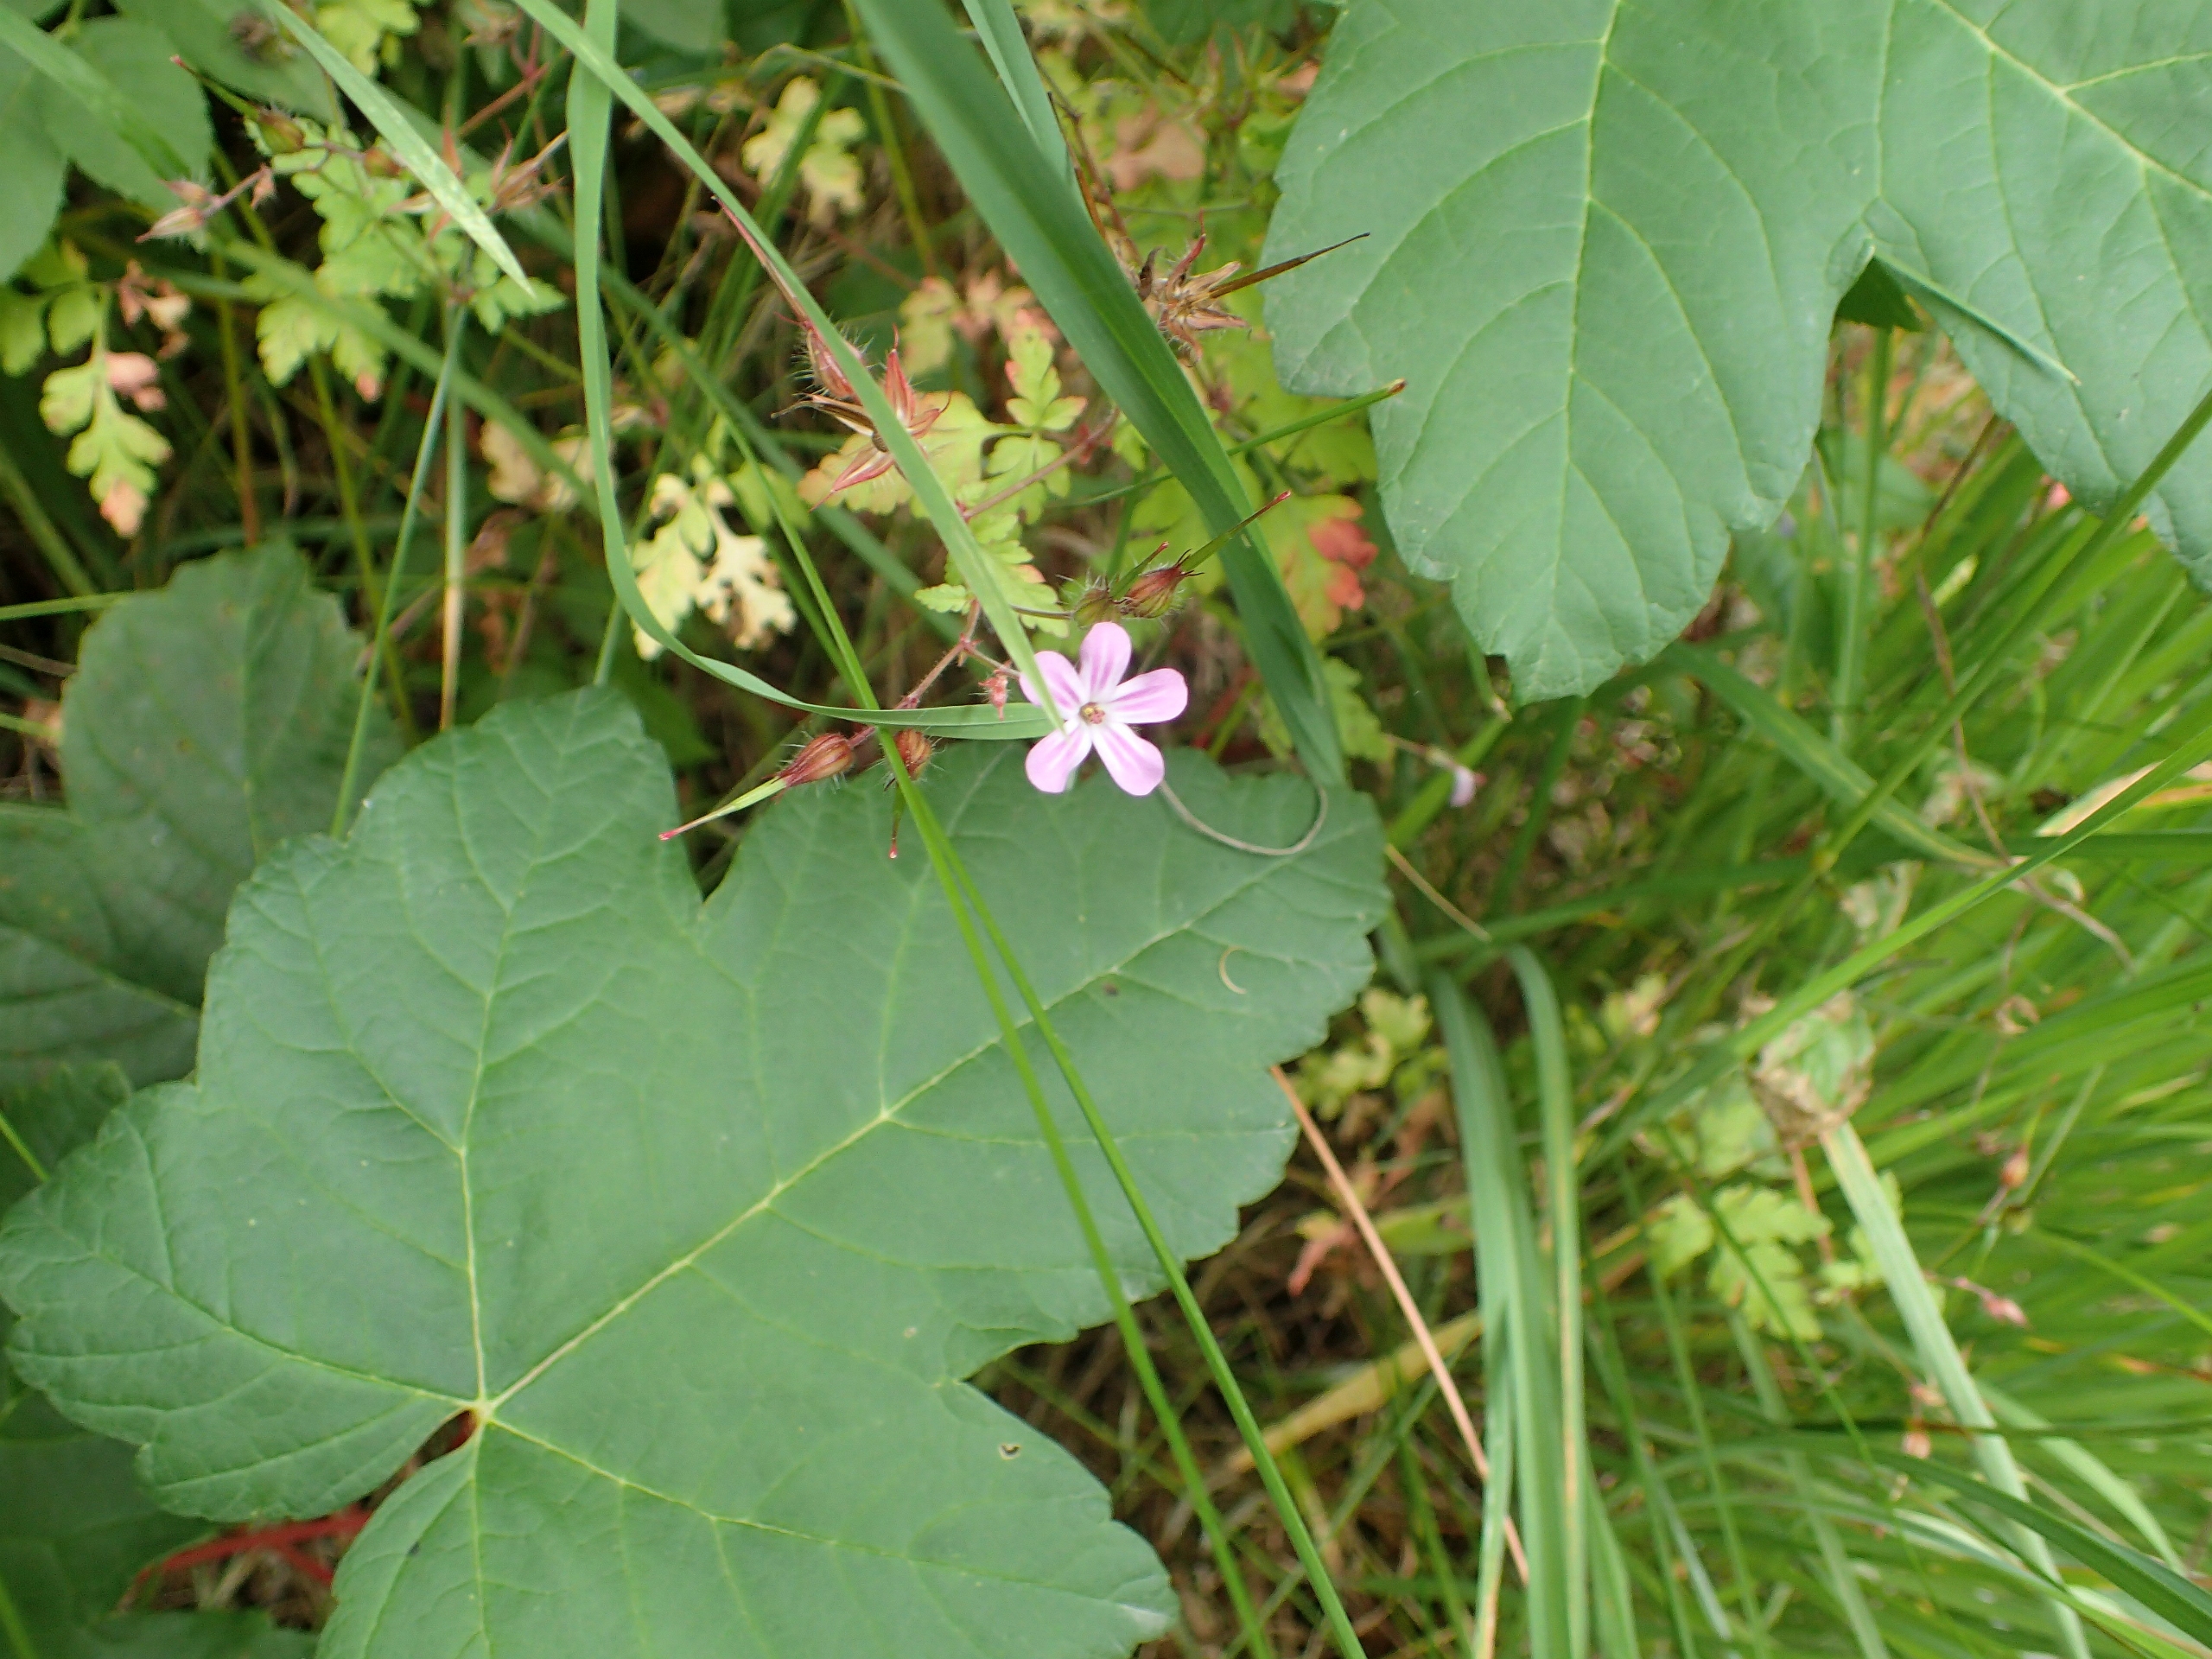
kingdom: Plantae
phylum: Tracheophyta
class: Magnoliopsida
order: Geraniales
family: Geraniaceae
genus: Geranium
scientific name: Geranium robertianum
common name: Stinkende storkenæb
